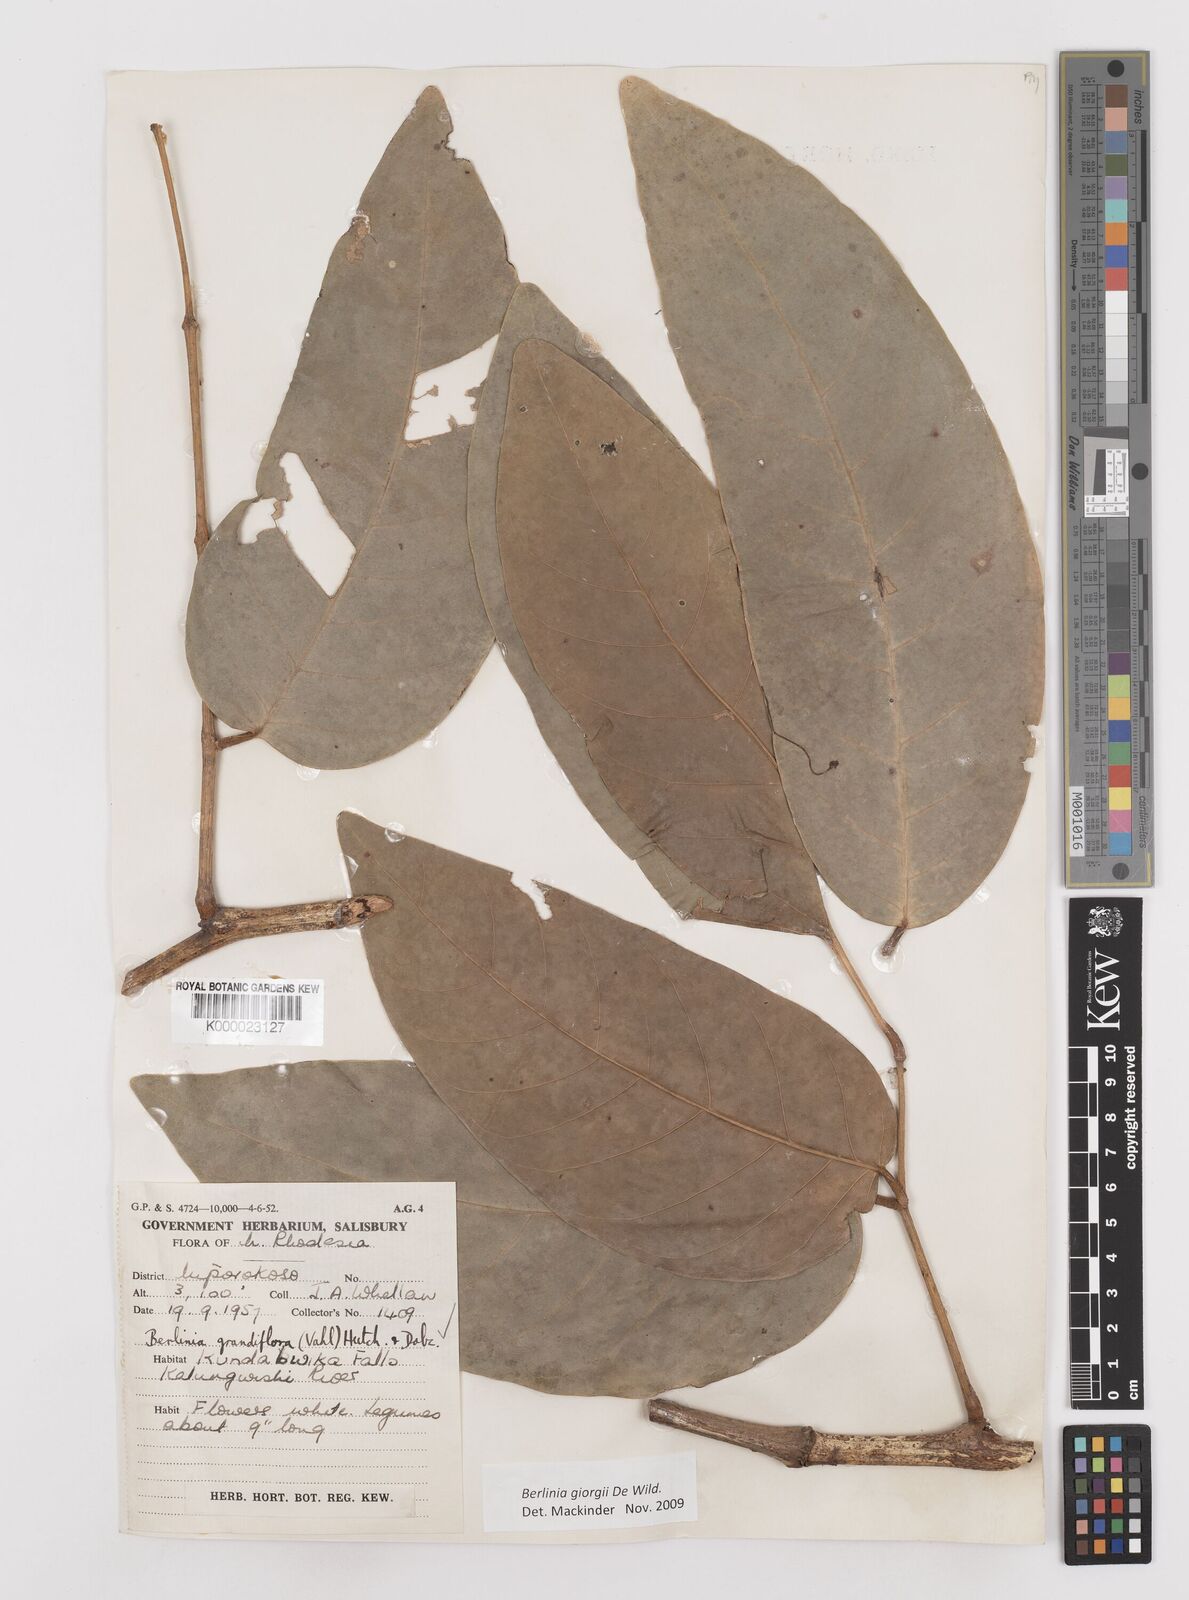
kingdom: Plantae
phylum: Tracheophyta
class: Magnoliopsida
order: Fabales
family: Fabaceae
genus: Berlinia
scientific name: Berlinia giorgii
